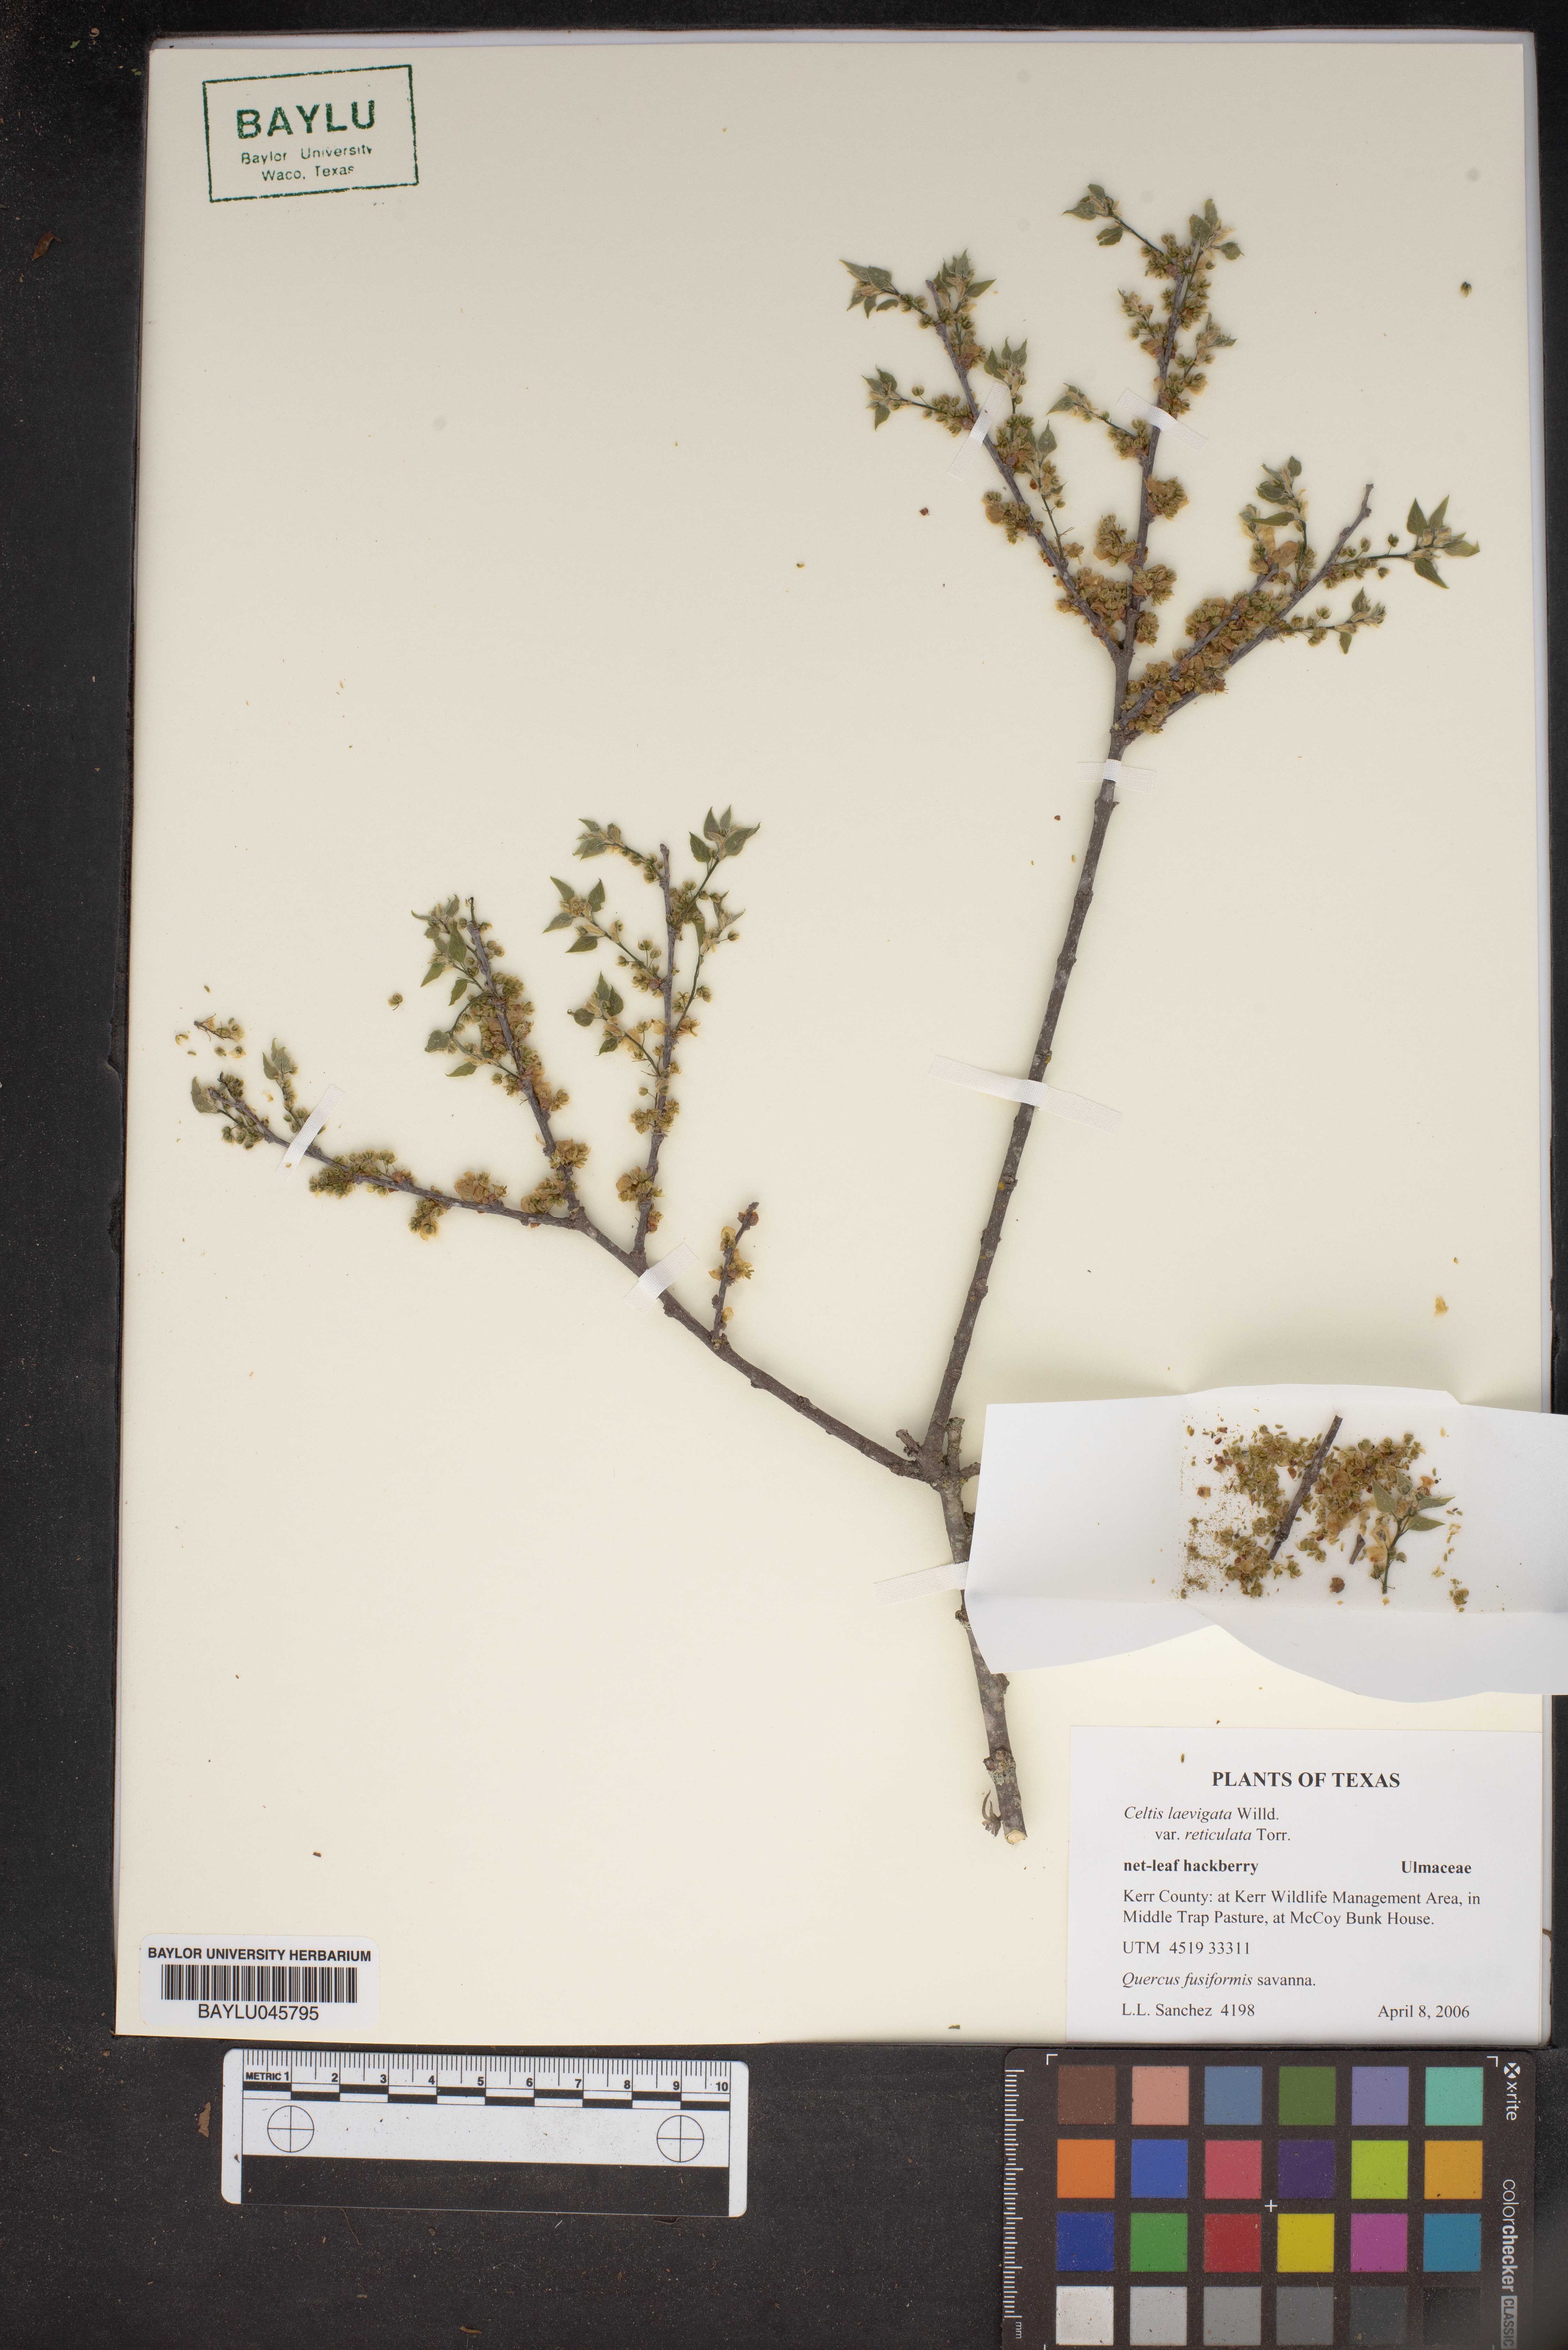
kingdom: Plantae
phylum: Tracheophyta
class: Magnoliopsida
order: Rosales
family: Cannabaceae
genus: Celtis
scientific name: Celtis reticulata
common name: Netleaf hackberry
